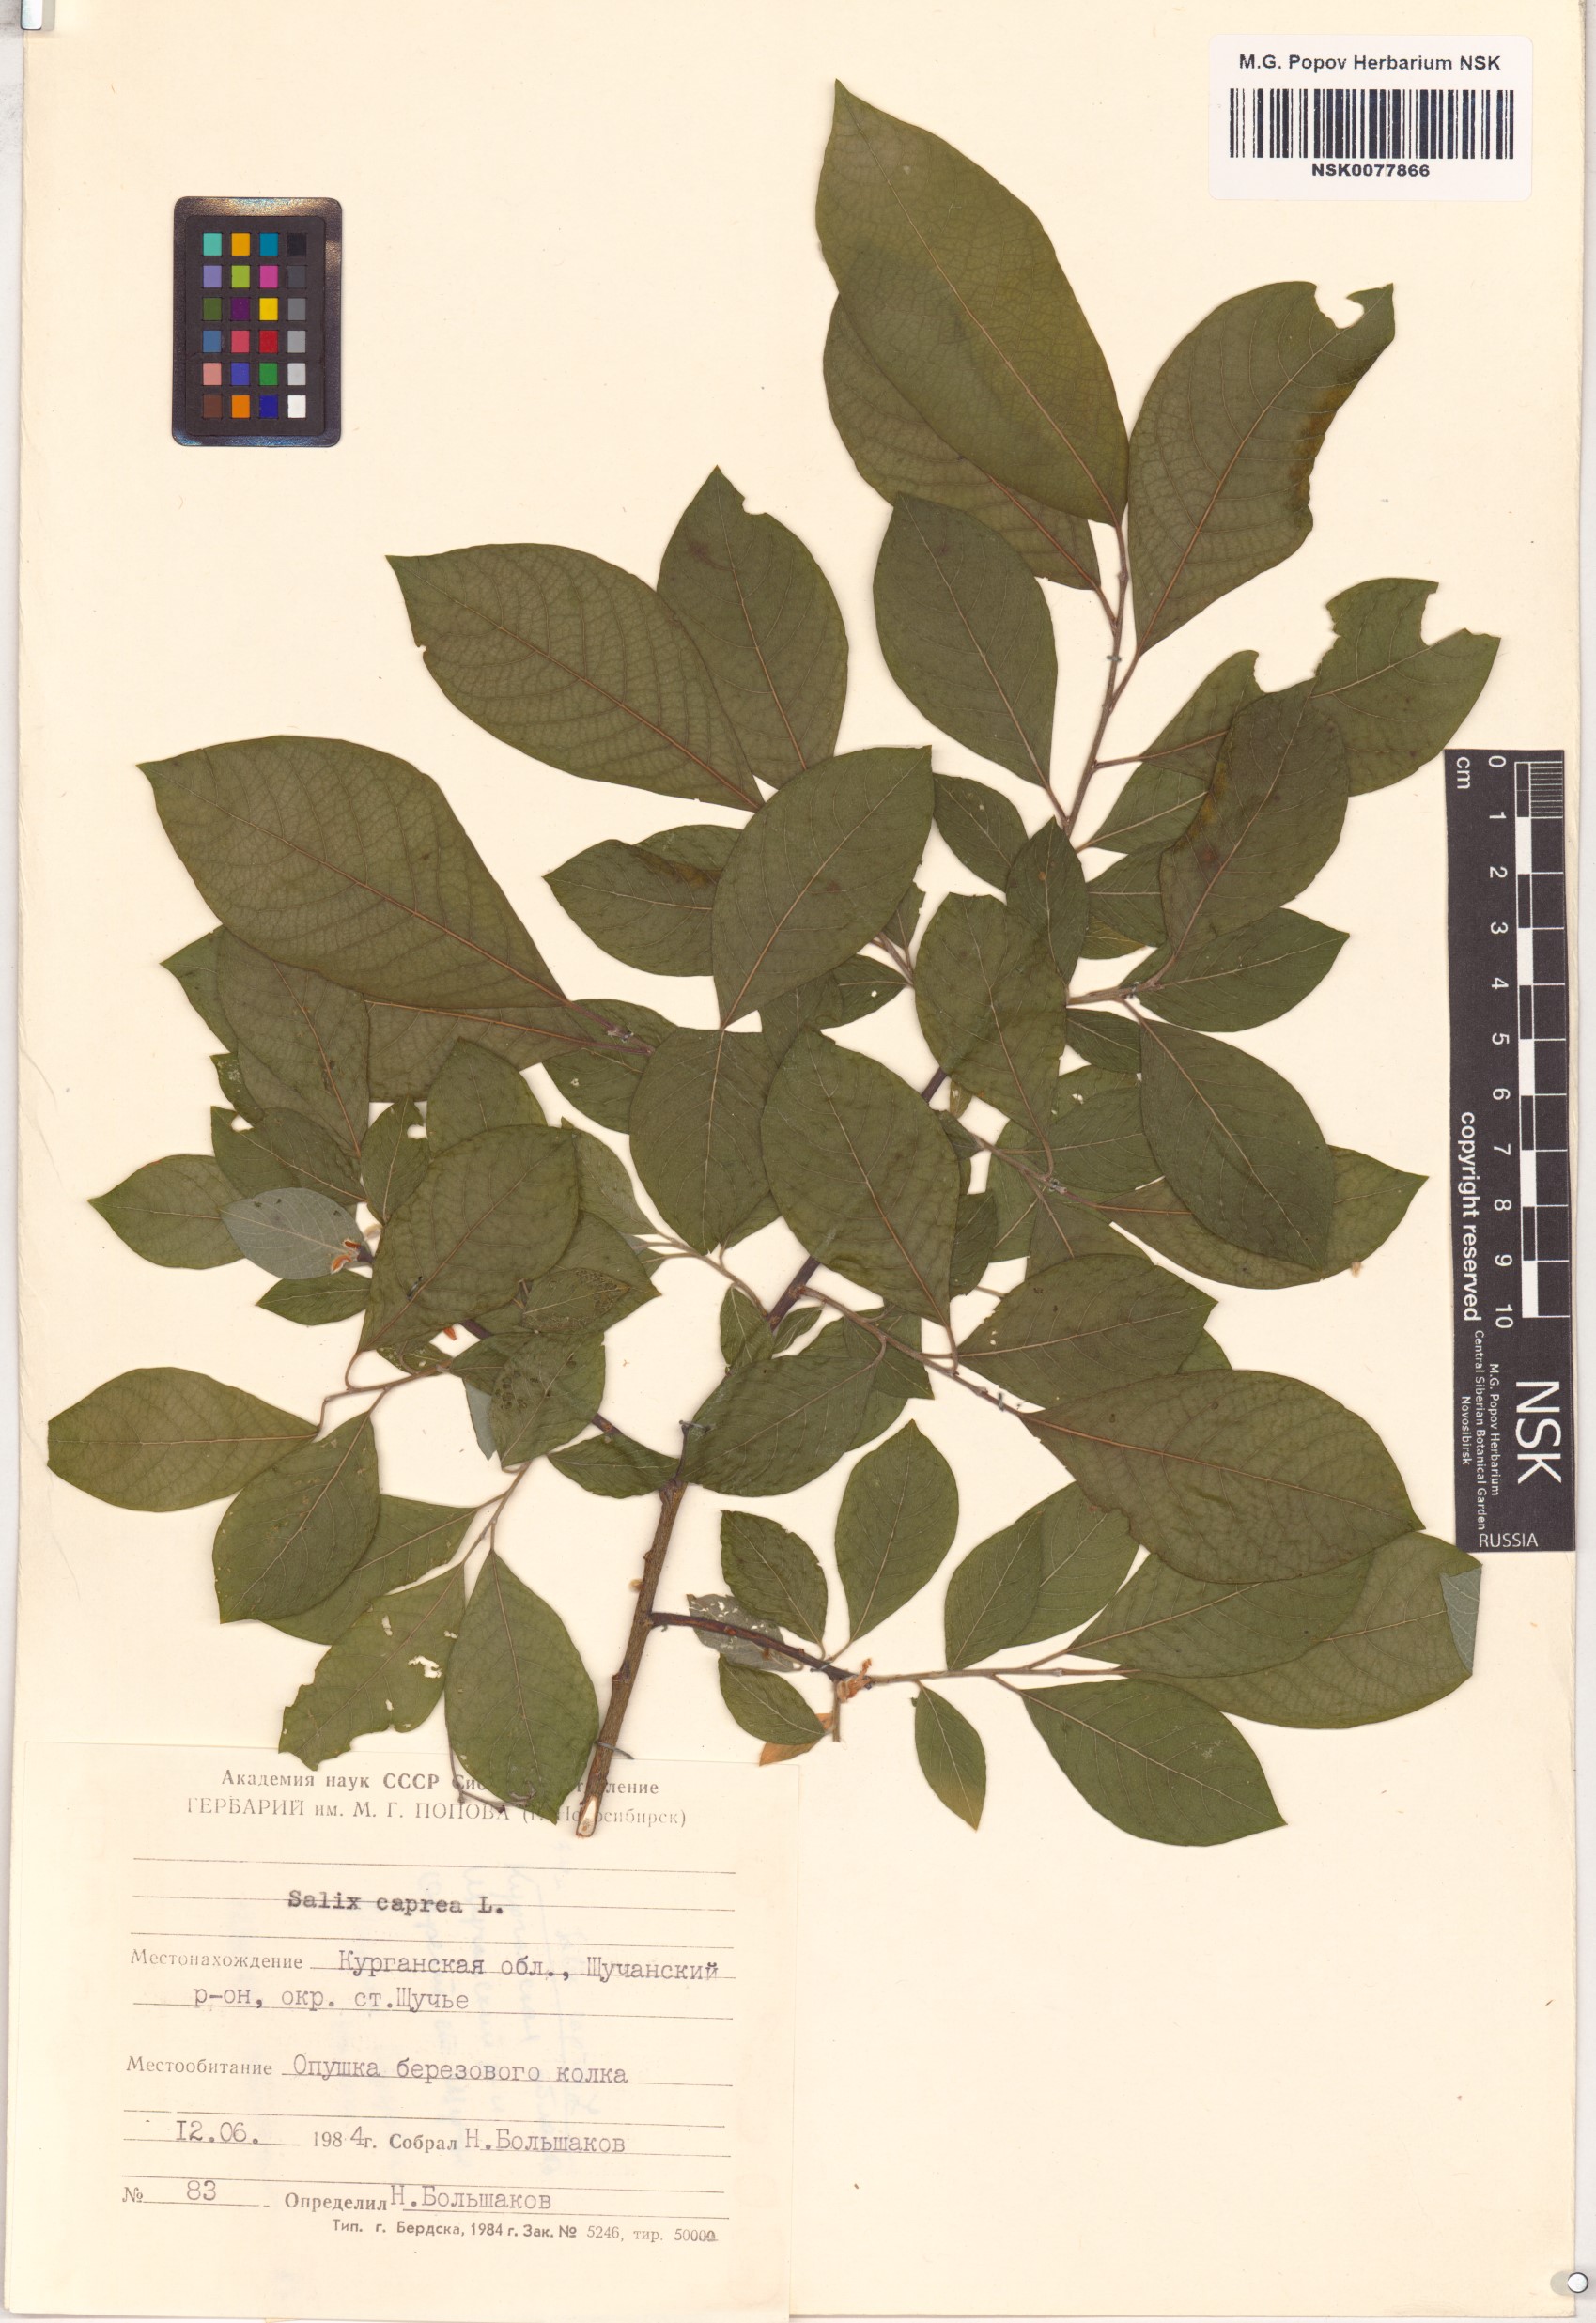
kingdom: Plantae
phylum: Tracheophyta
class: Magnoliopsida
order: Malpighiales
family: Salicaceae
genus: Salix
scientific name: Salix caprea
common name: Goat willow
